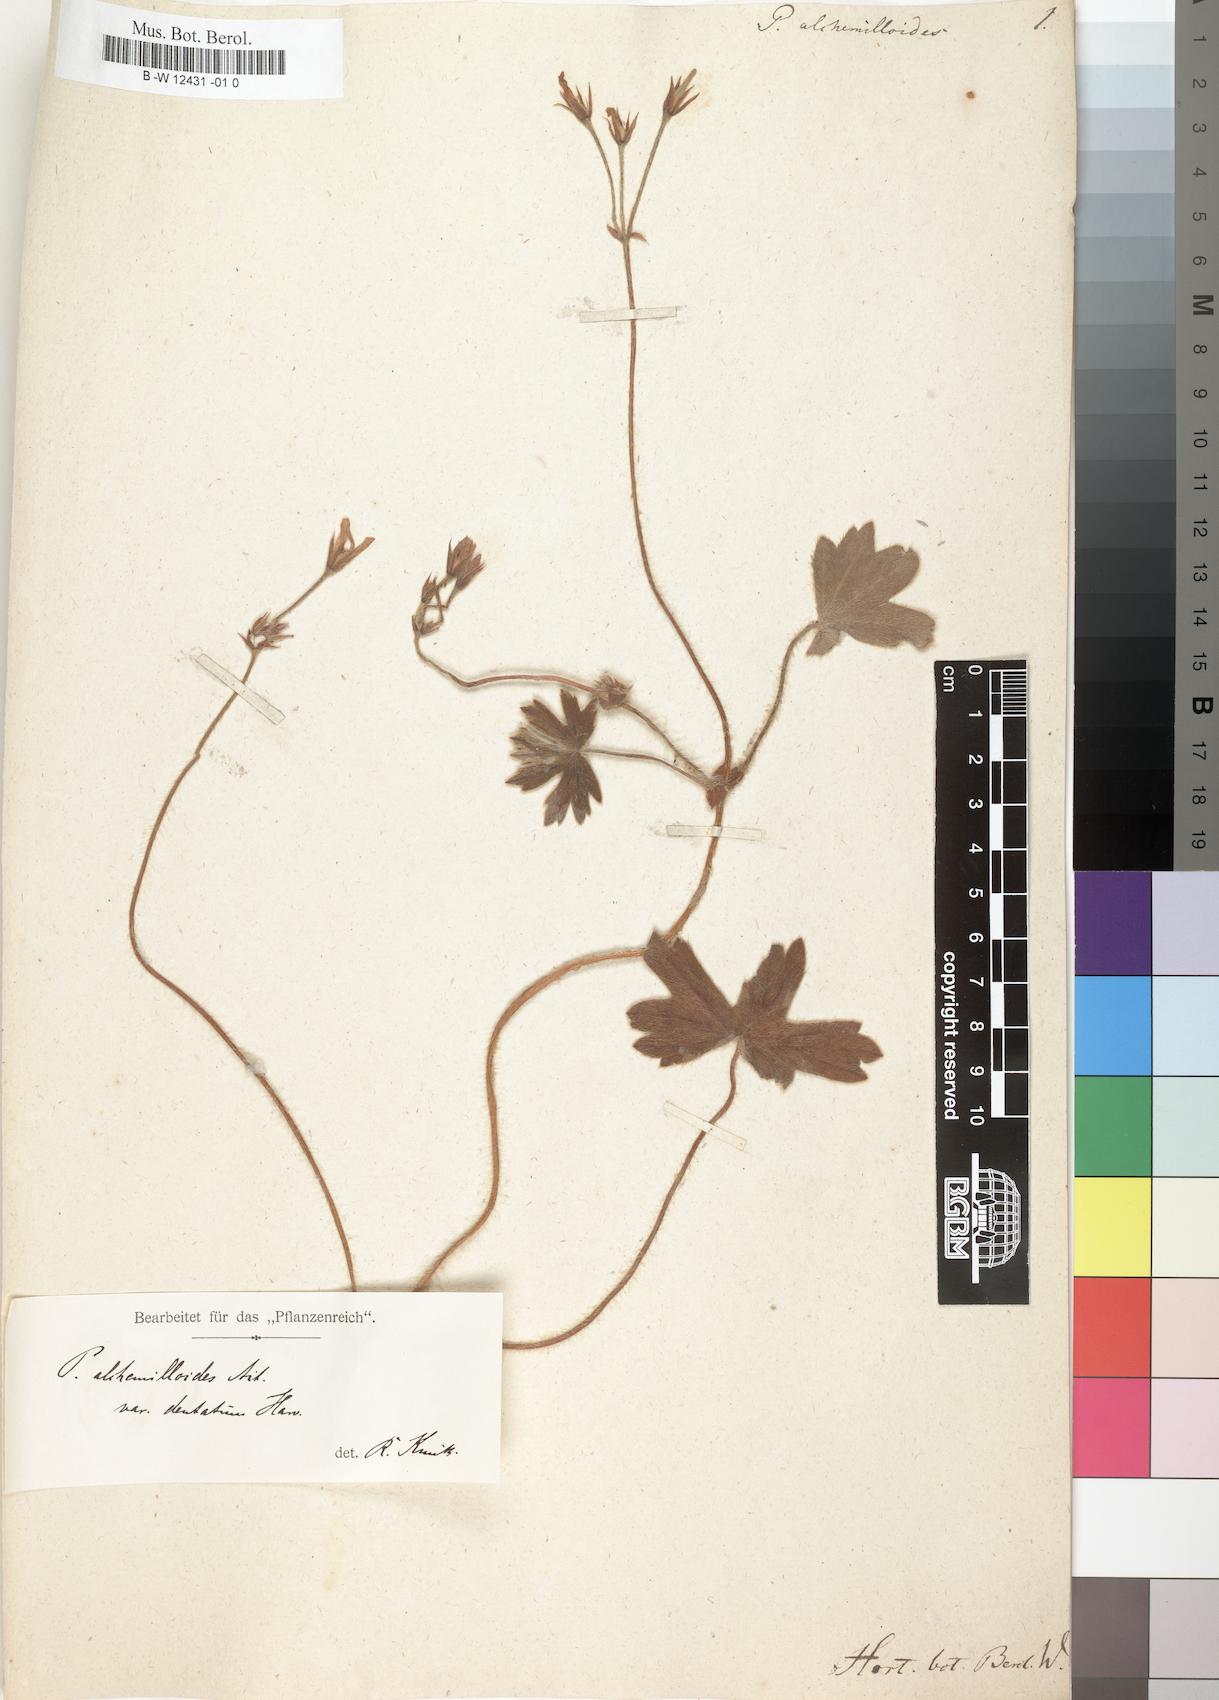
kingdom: Plantae
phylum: Tracheophyta
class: Magnoliopsida
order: Geraniales
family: Geraniaceae
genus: Pelargonium
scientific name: Pelargonium alchemilloides
